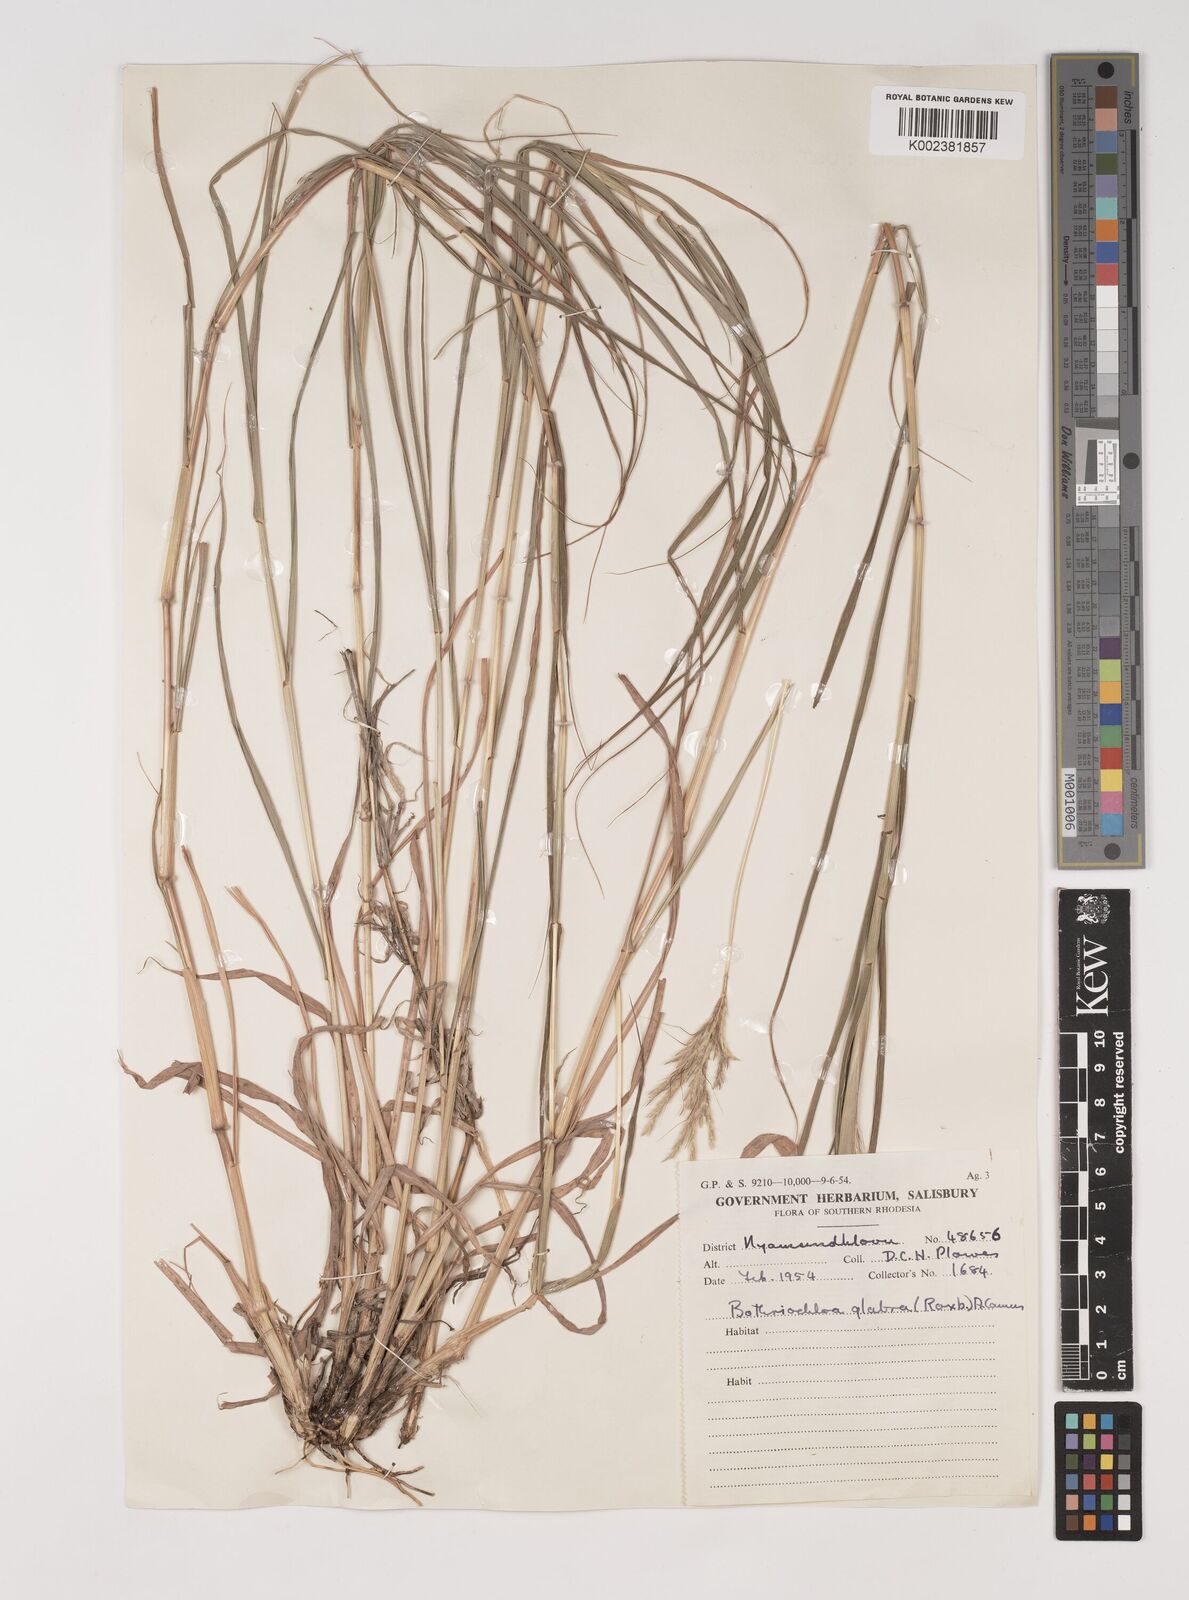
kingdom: Plantae
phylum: Tracheophyta
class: Liliopsida
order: Poales
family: Poaceae
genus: Bothriochloa
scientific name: Bothriochloa radicans
